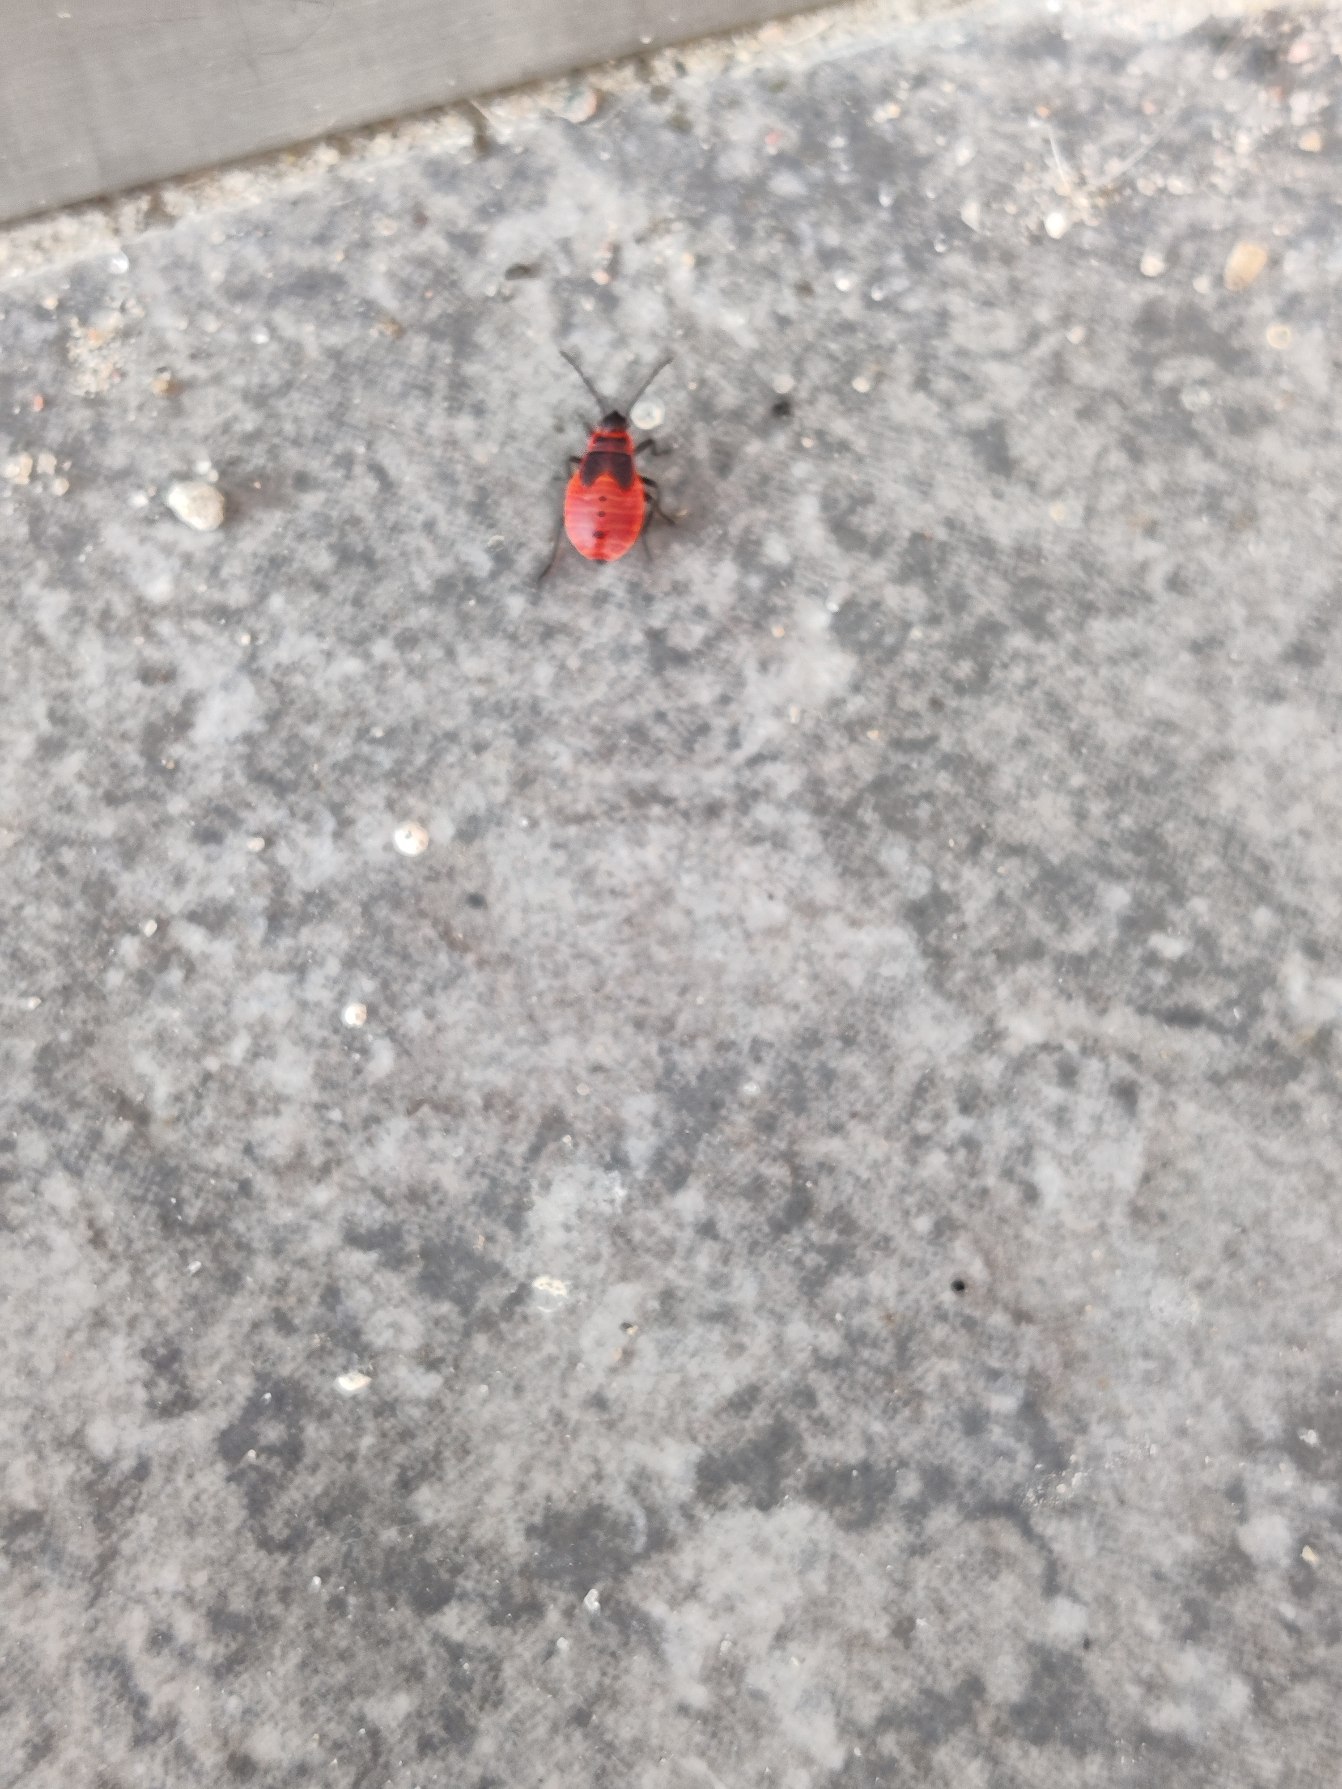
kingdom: Animalia
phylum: Arthropoda
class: Insecta
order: Hemiptera
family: Pyrrhocoridae
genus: Pyrrhocoris
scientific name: Pyrrhocoris apterus
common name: Ildtæge
